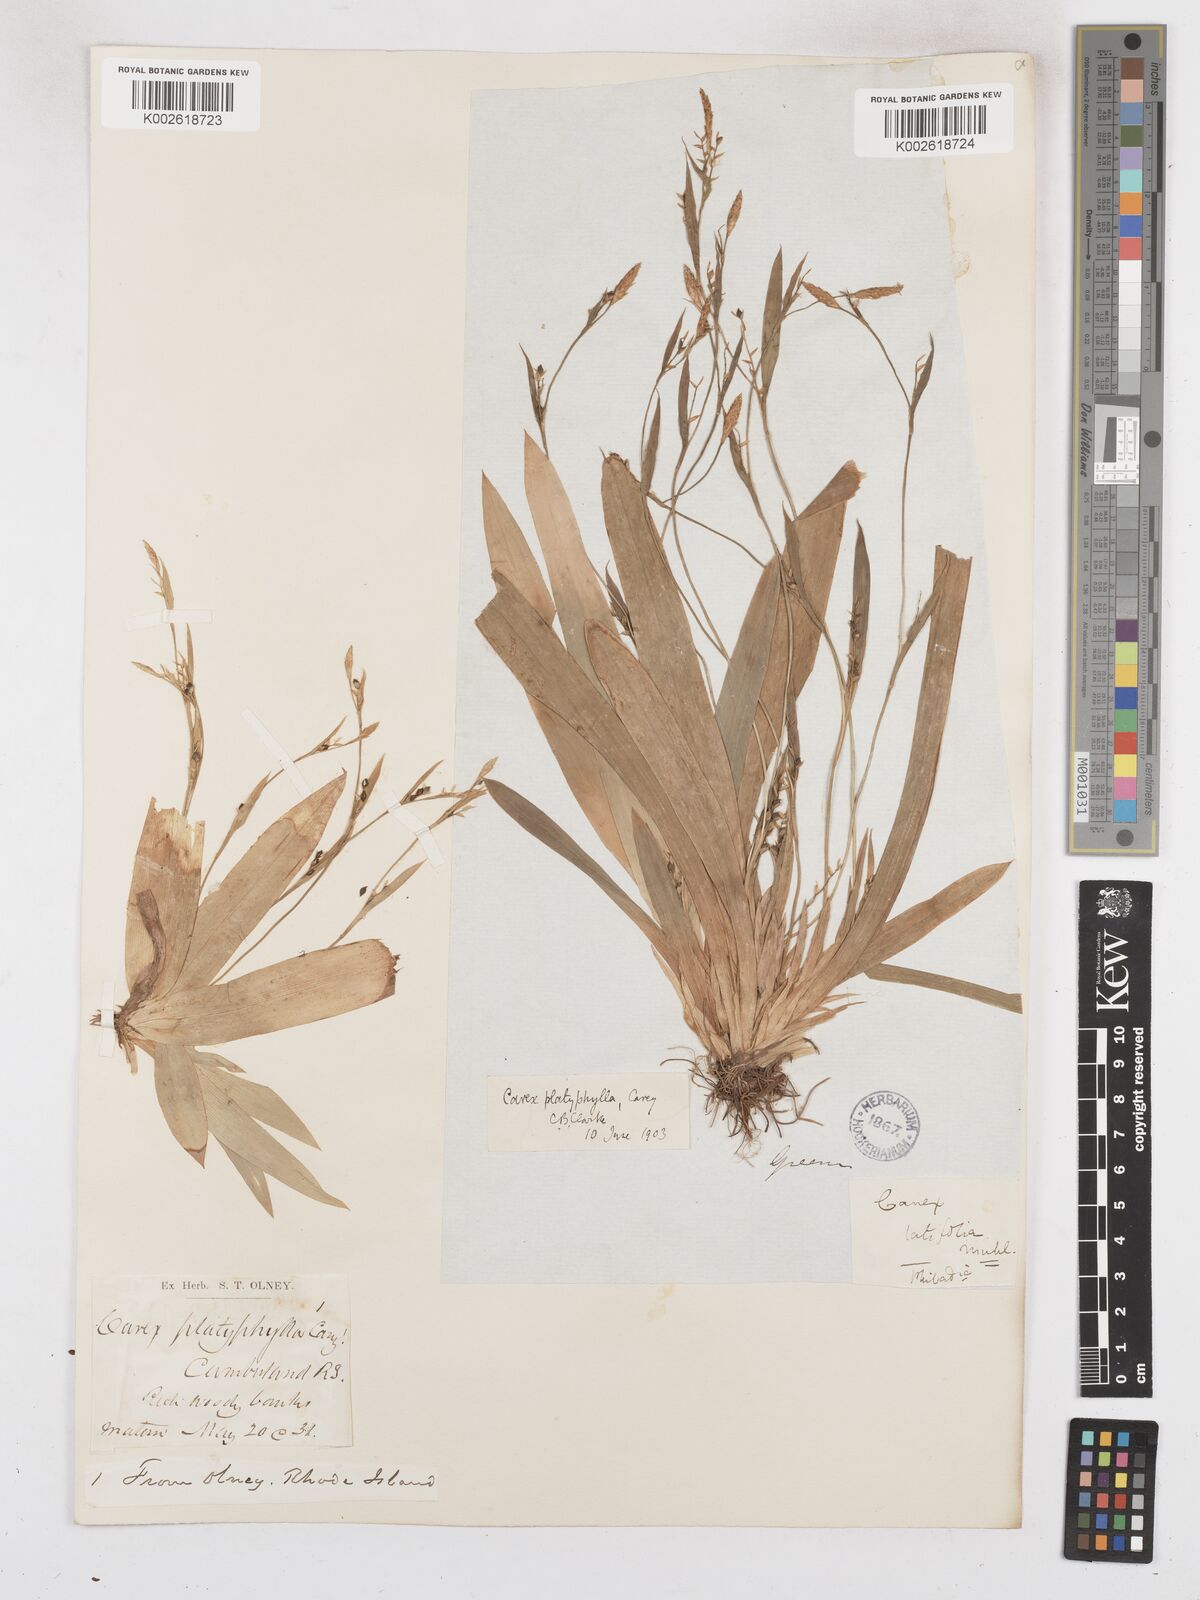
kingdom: Plantae
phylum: Tracheophyta
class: Liliopsida
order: Poales
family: Cyperaceae
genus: Carex
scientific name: Carex platyphylla
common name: Broad-leaved sedge
